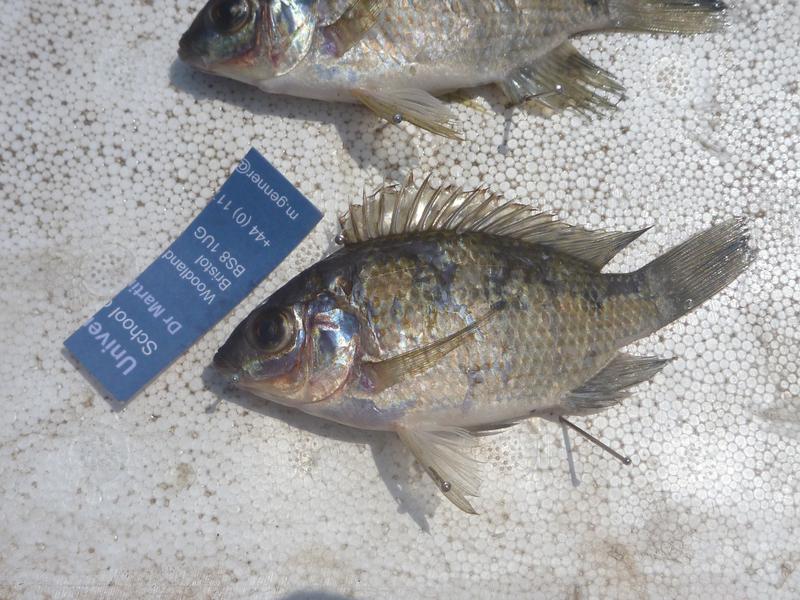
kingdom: Animalia
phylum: Chordata
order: Perciformes
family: Cichlidae
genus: Oreochromis
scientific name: Oreochromis upembae
